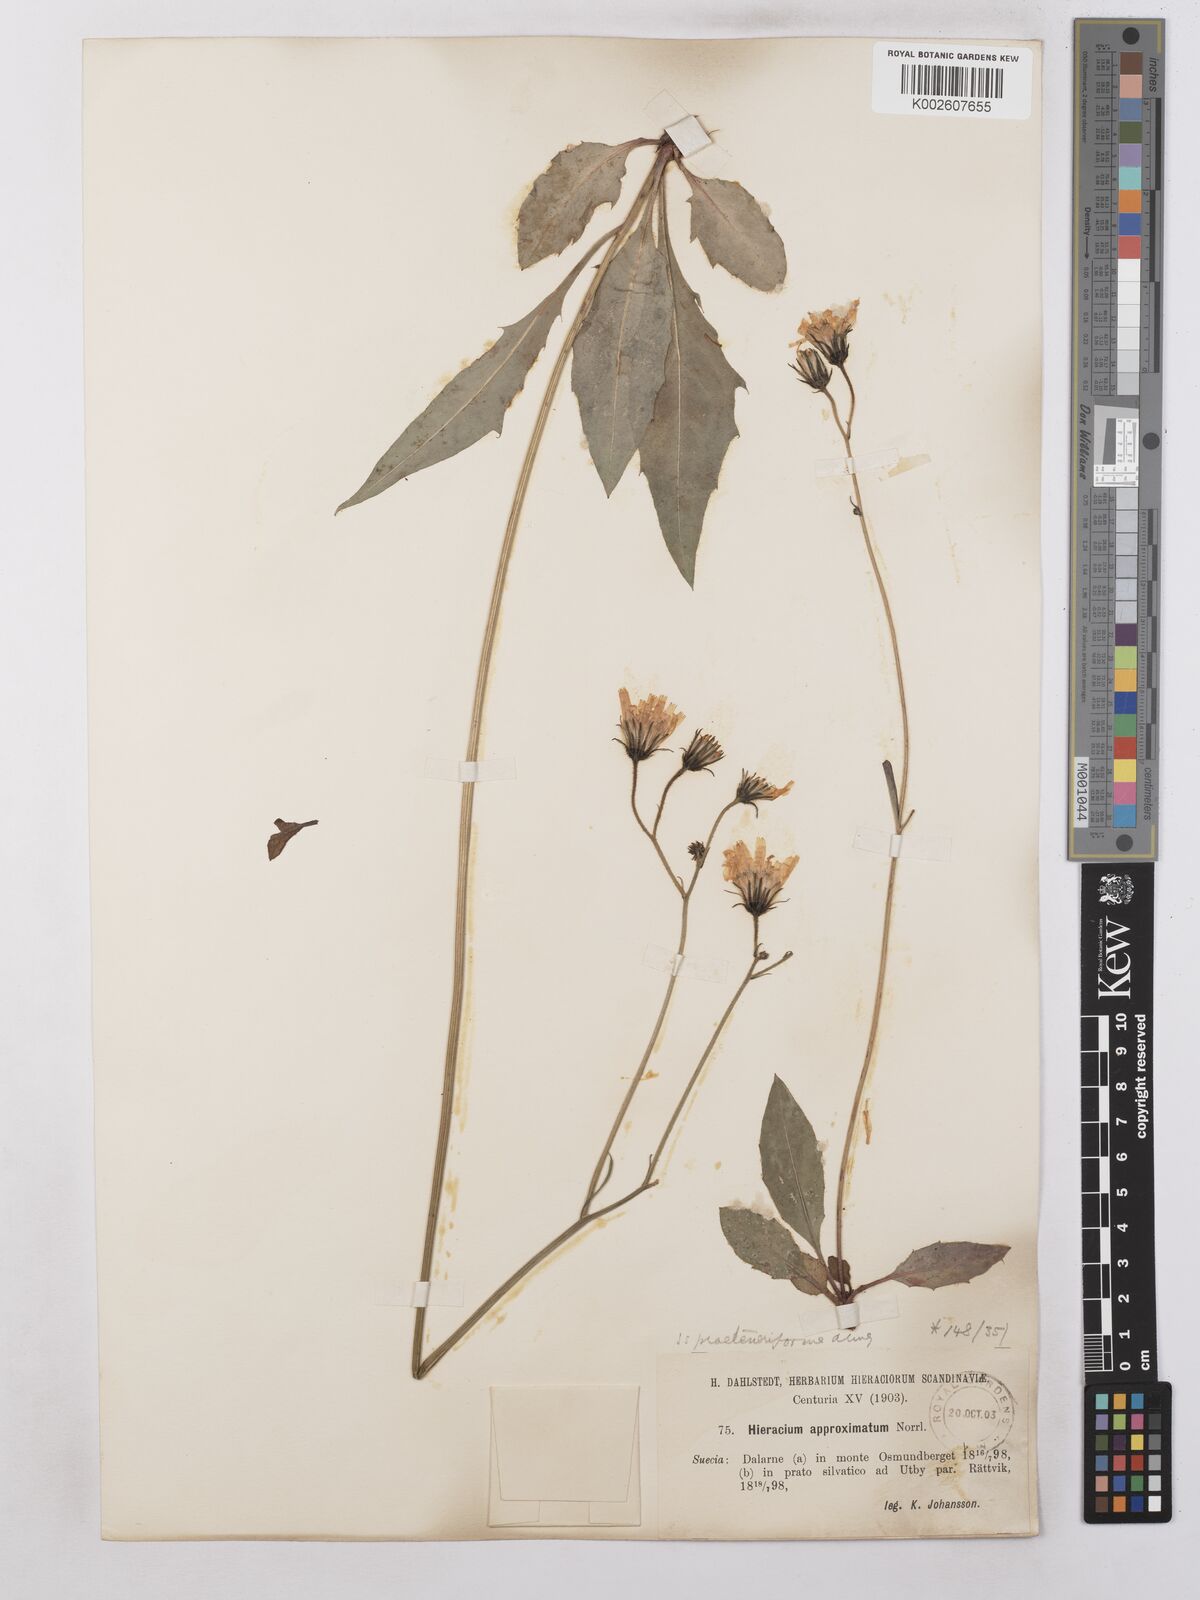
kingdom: Plantae
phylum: Tracheophyta
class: Magnoliopsida
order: Asterales
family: Asteraceae
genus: Hieracium
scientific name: Hieracium maculatum
